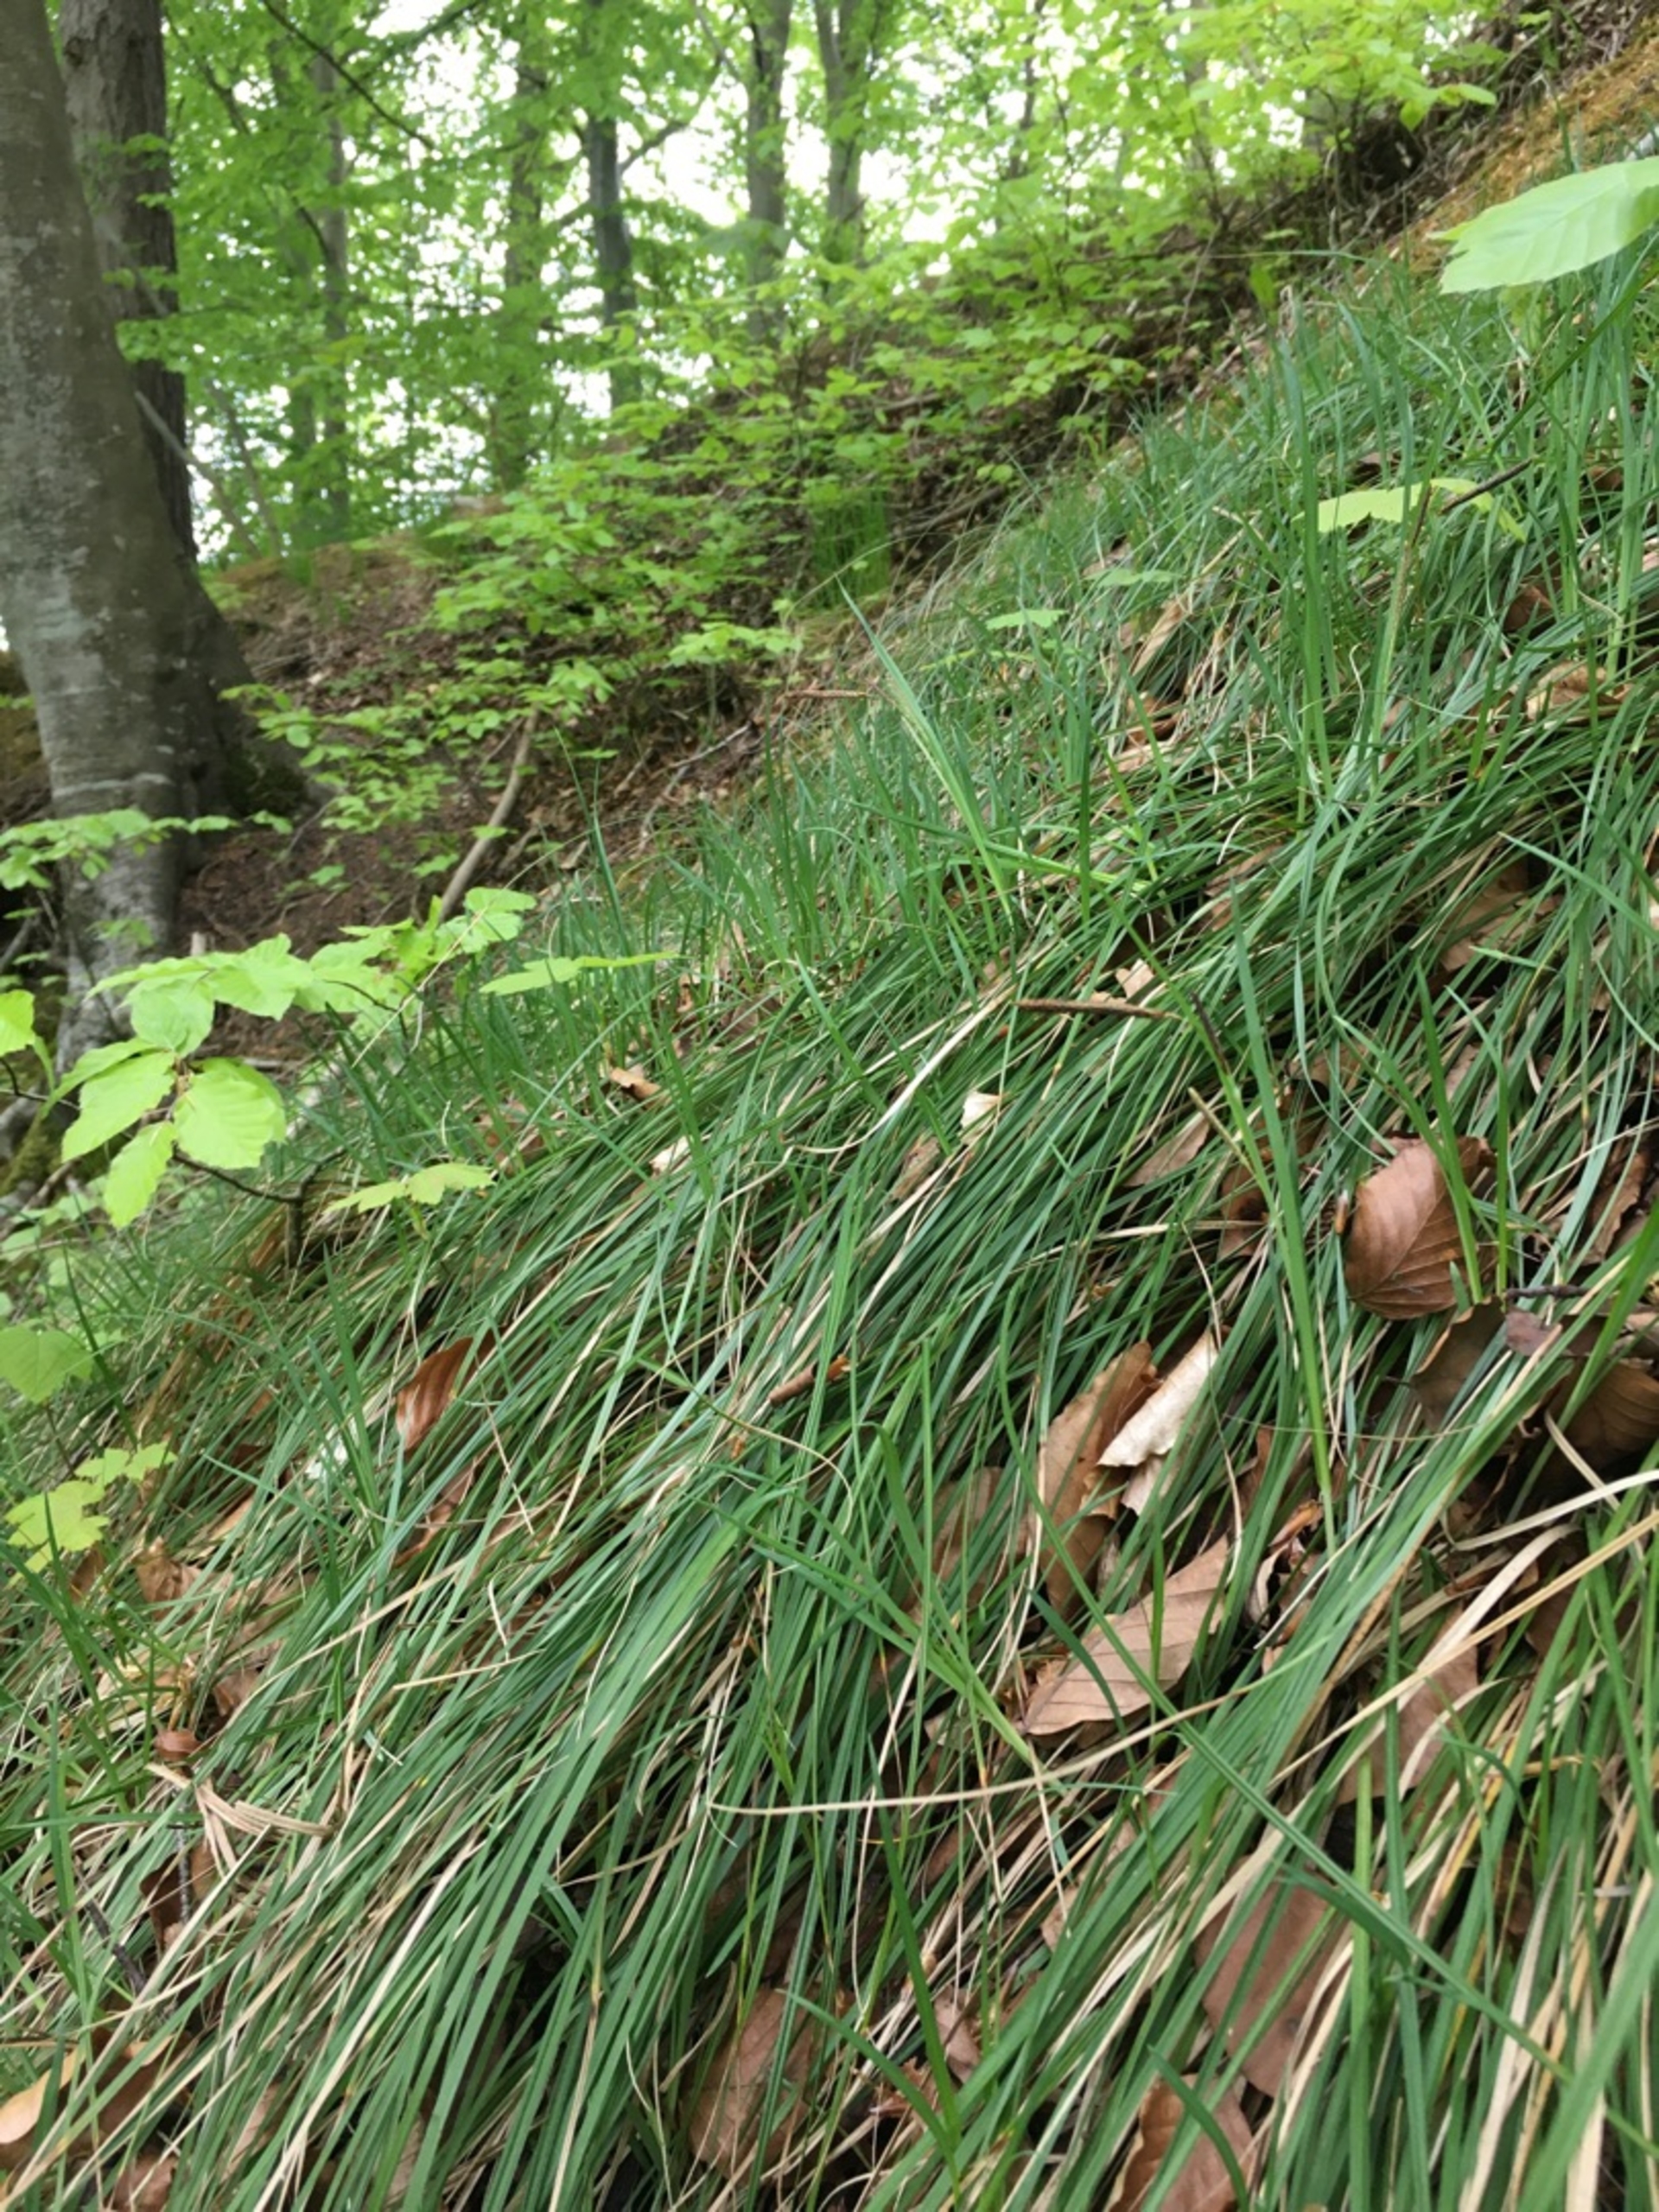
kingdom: Plantae
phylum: Tracheophyta
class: Liliopsida
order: Poales
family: Cyperaceae
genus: Carex
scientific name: Carex flacca
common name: Blågrøn star
